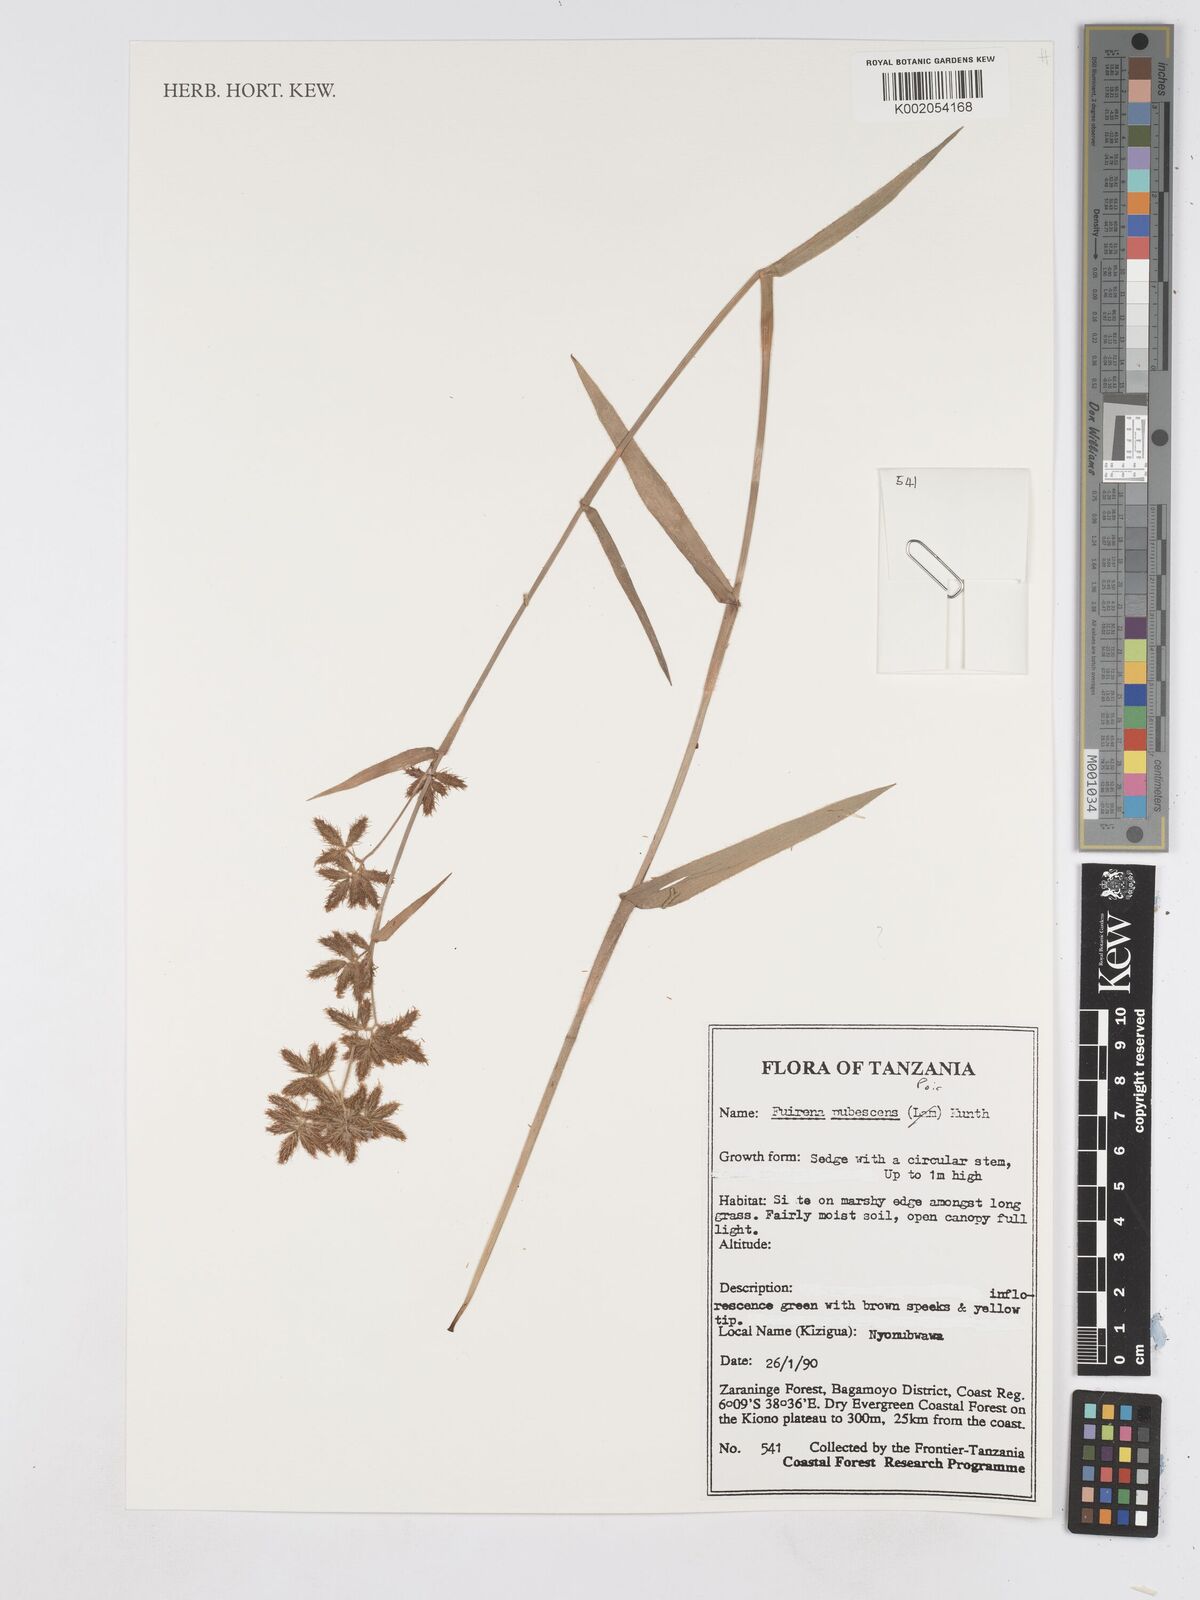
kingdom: Plantae
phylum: Tracheophyta
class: Liliopsida
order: Poales
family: Cyperaceae
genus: Fuirena
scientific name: Fuirena pachyrrhiza
